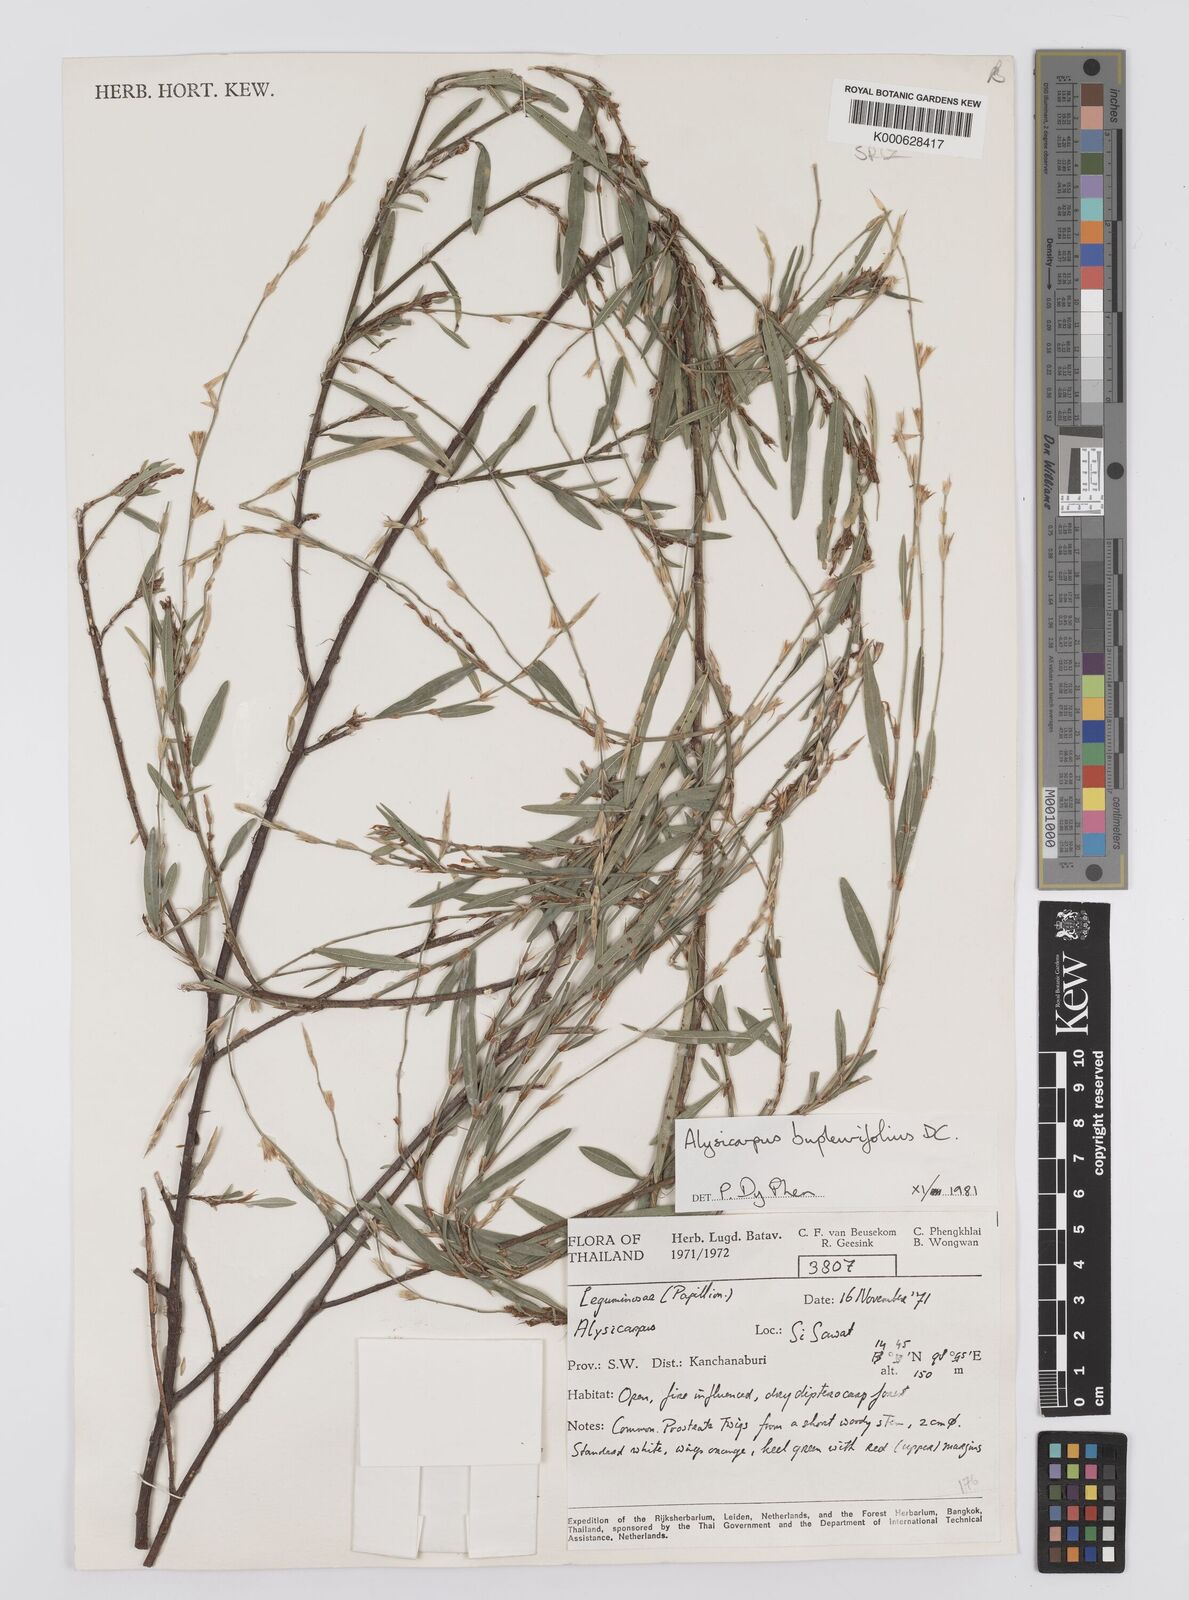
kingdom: Plantae
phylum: Tracheophyta
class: Magnoliopsida
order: Fabales
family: Fabaceae
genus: Alysicarpus
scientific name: Alysicarpus bupleurifolius
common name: Sweet alys
